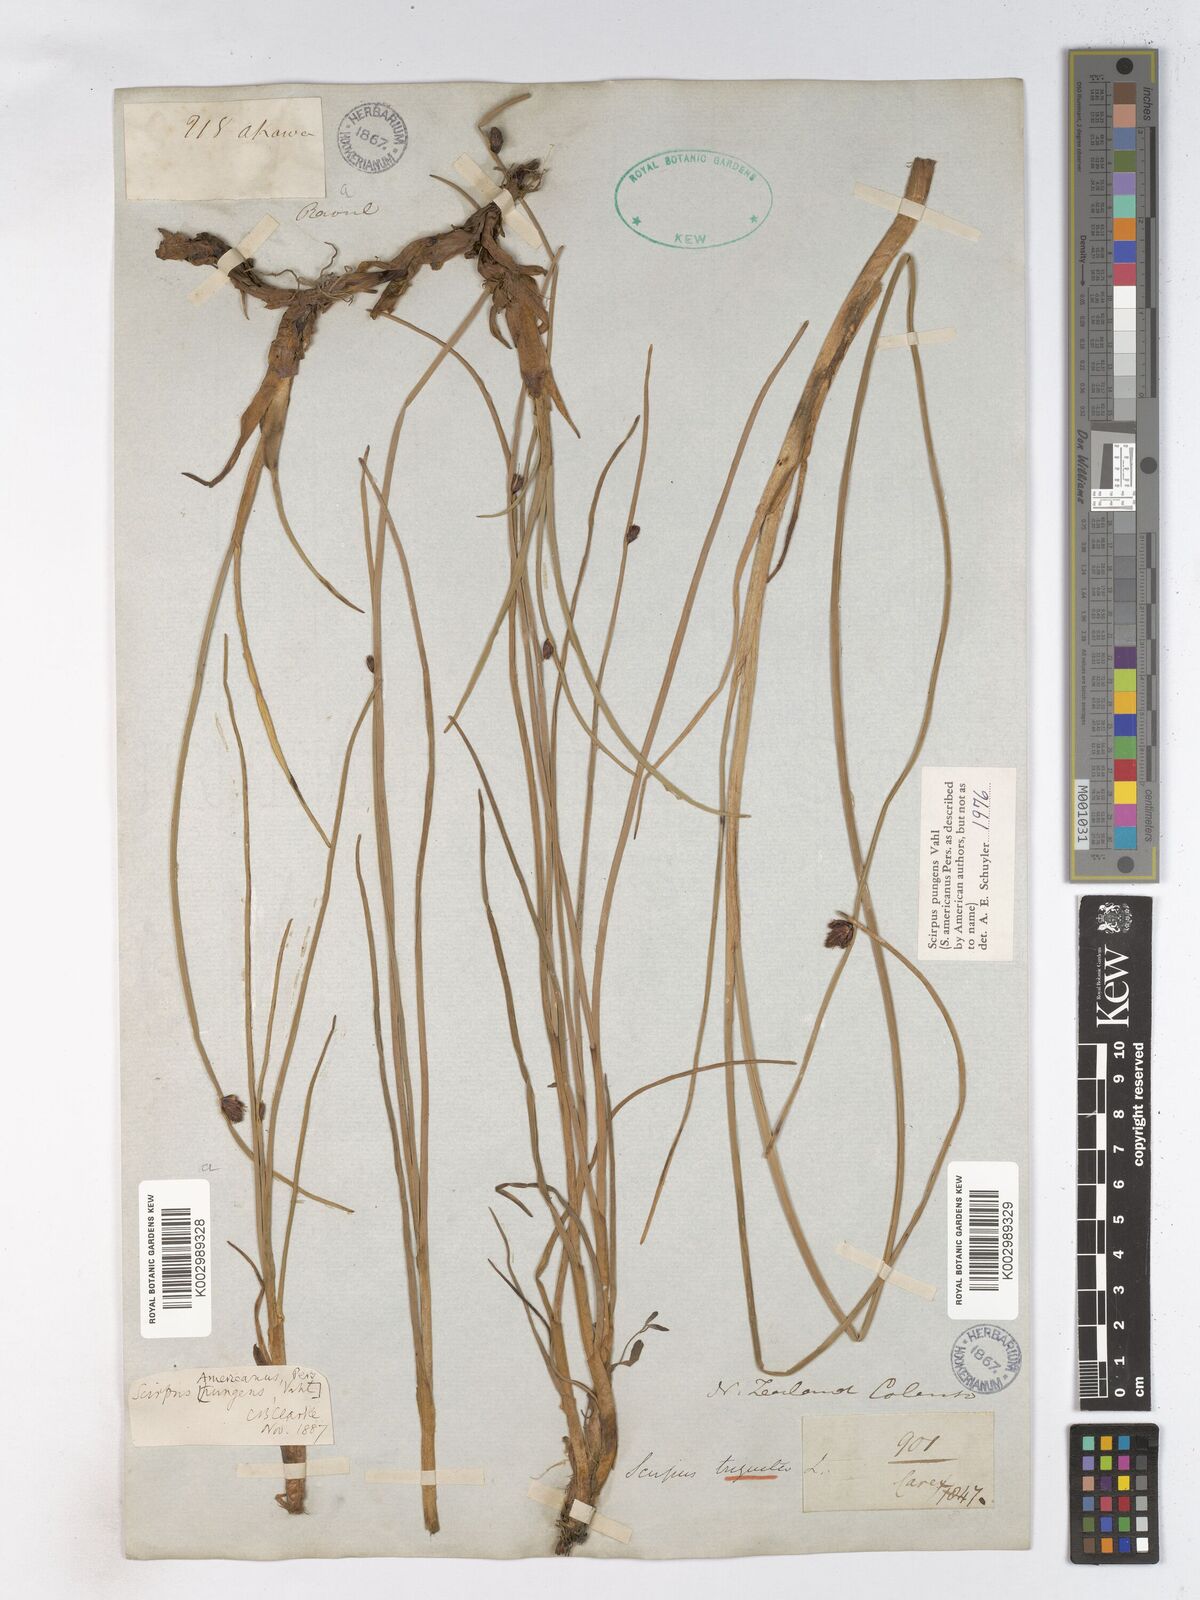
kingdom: Plantae
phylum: Tracheophyta
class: Liliopsida
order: Poales
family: Cyperaceae
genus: Schoenoplectus
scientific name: Schoenoplectus pungens
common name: Sharp club-rush
